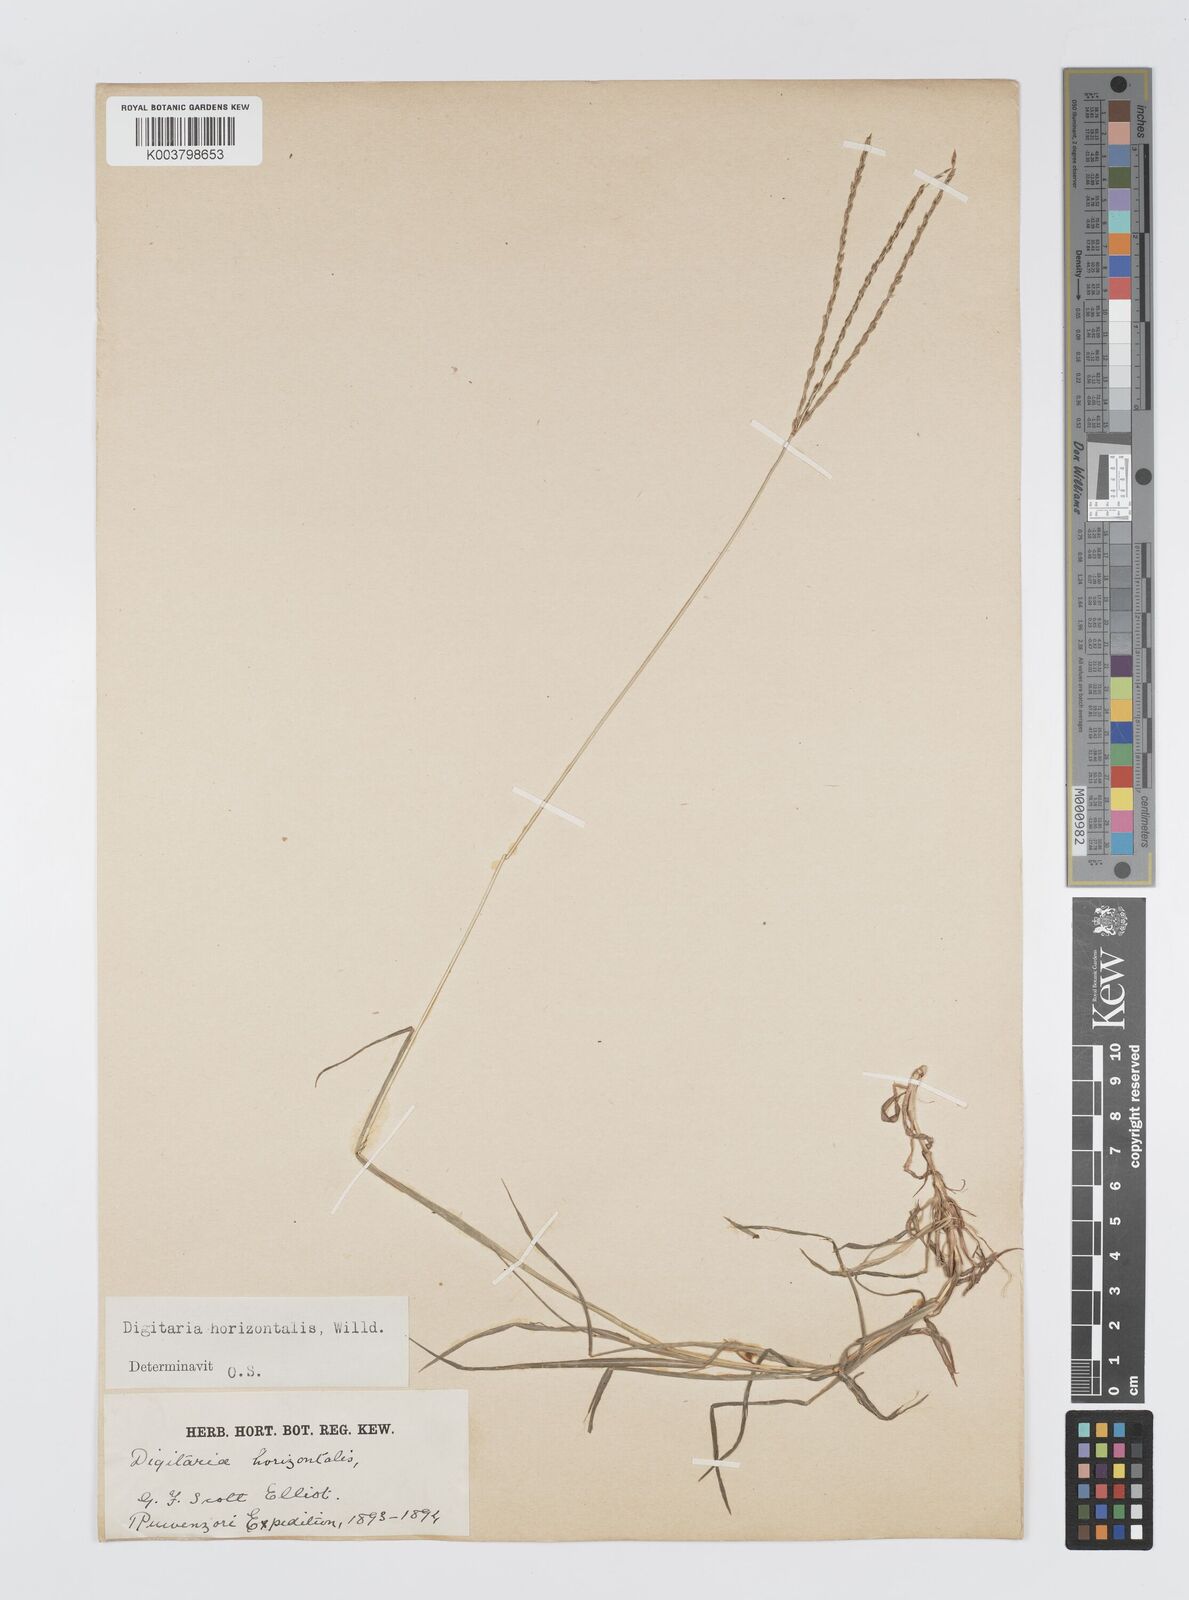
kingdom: Plantae
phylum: Tracheophyta
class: Liliopsida
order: Poales
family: Poaceae
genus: Digitaria
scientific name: Digitaria milanjiana
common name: Madagascar crabgrass
